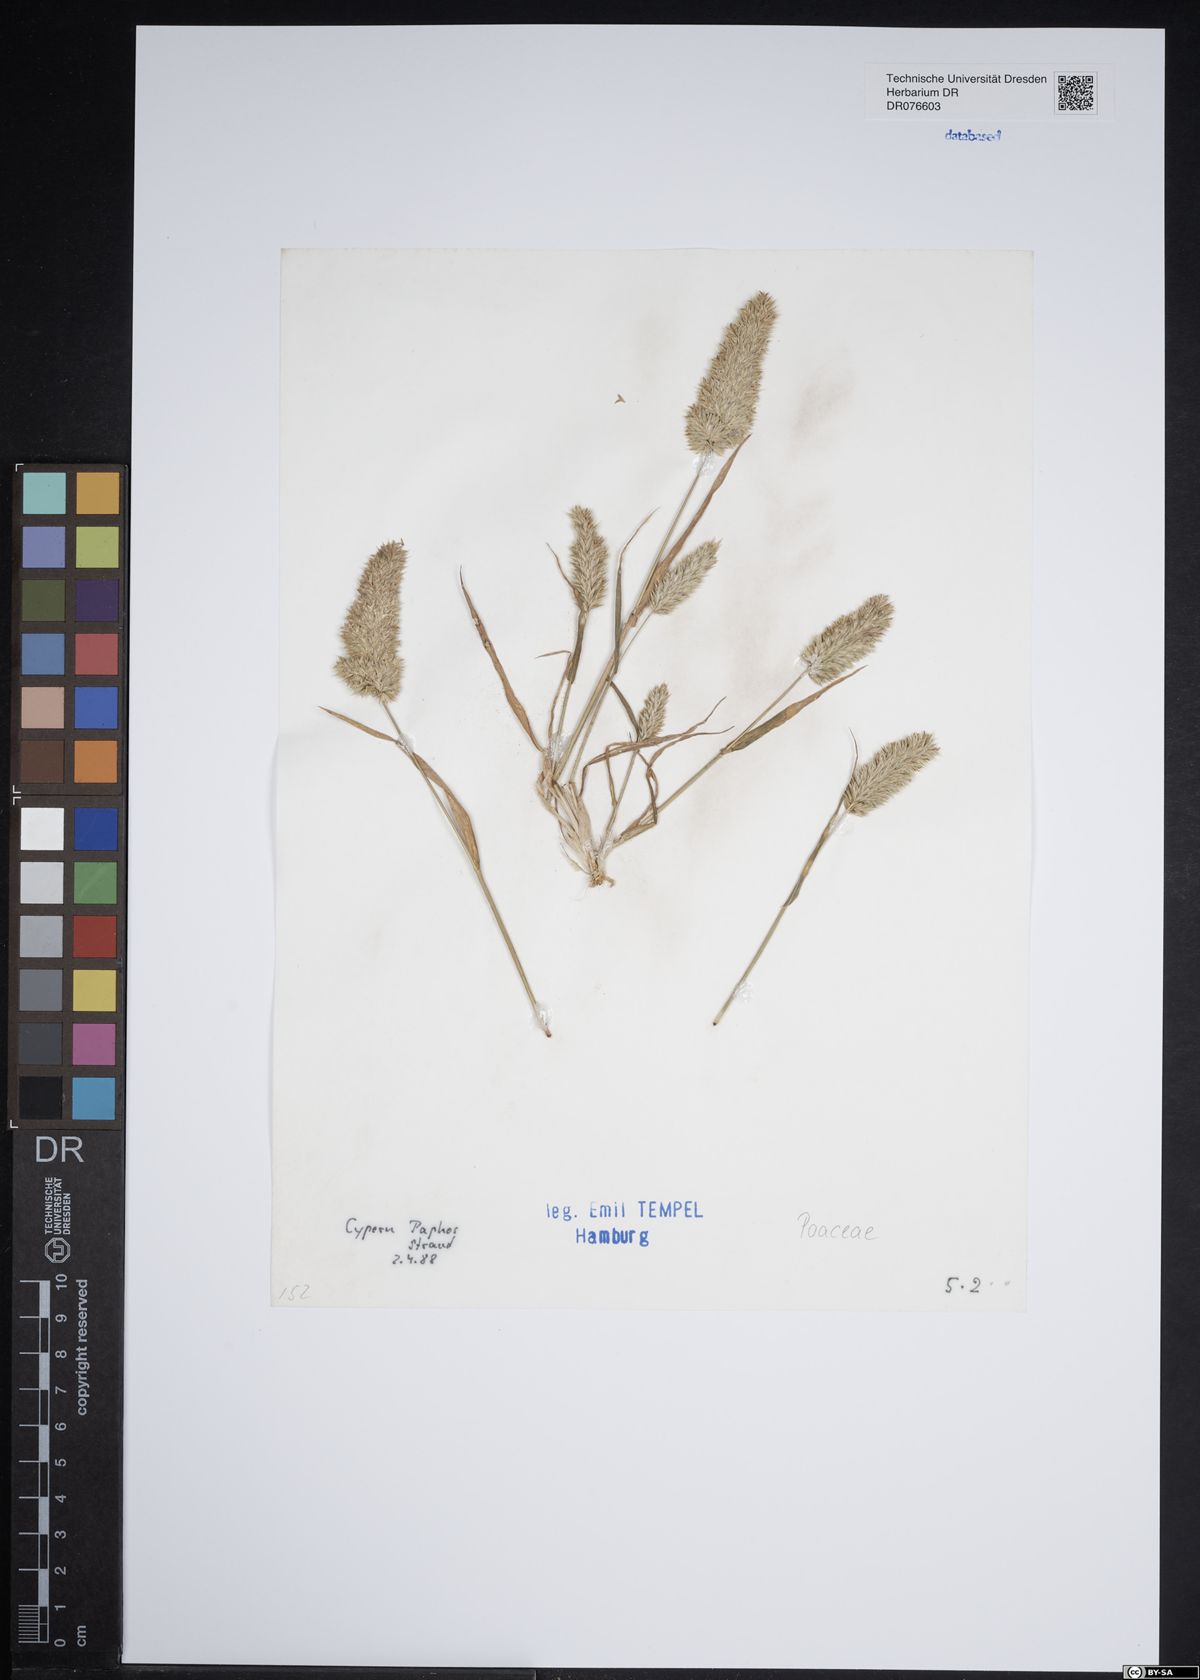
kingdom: Plantae
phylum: Tracheophyta
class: Liliopsida
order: Poales
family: Poaceae
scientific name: Poaceae
